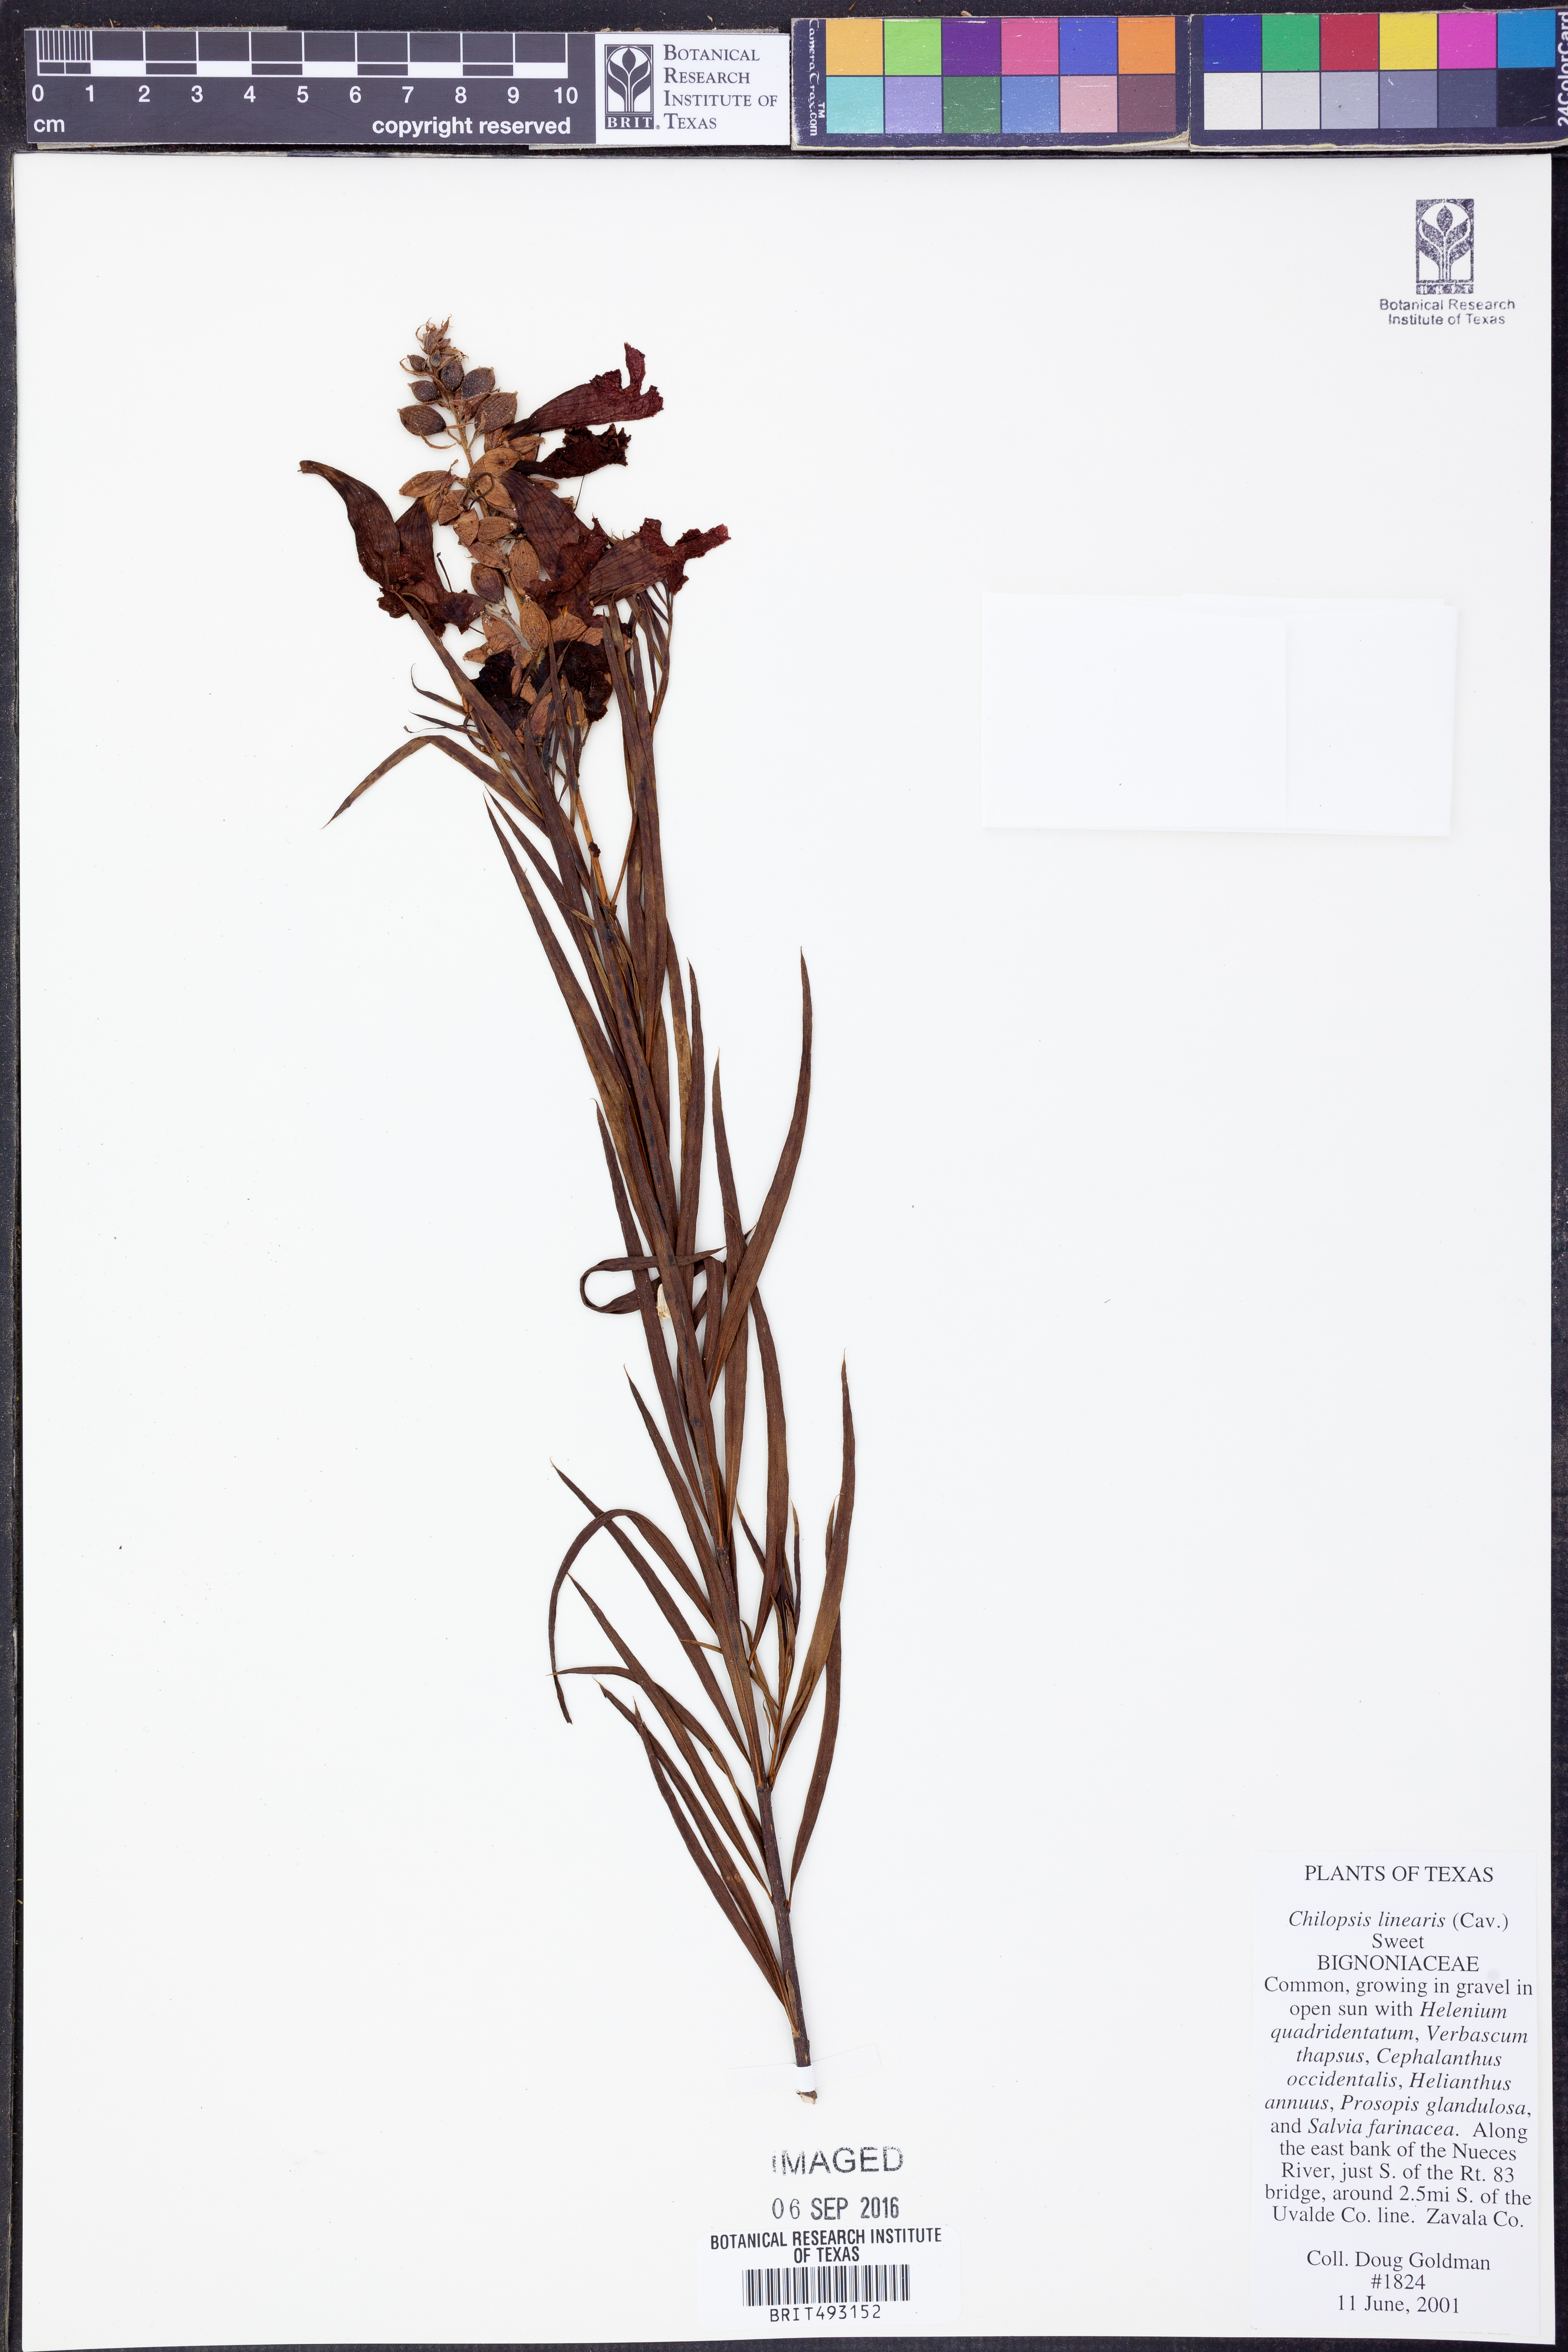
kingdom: Plantae
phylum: Tracheophyta
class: Magnoliopsida
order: Lamiales
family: Bignoniaceae
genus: Chilopsis
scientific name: Chilopsis linearis
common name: Desert-willow
